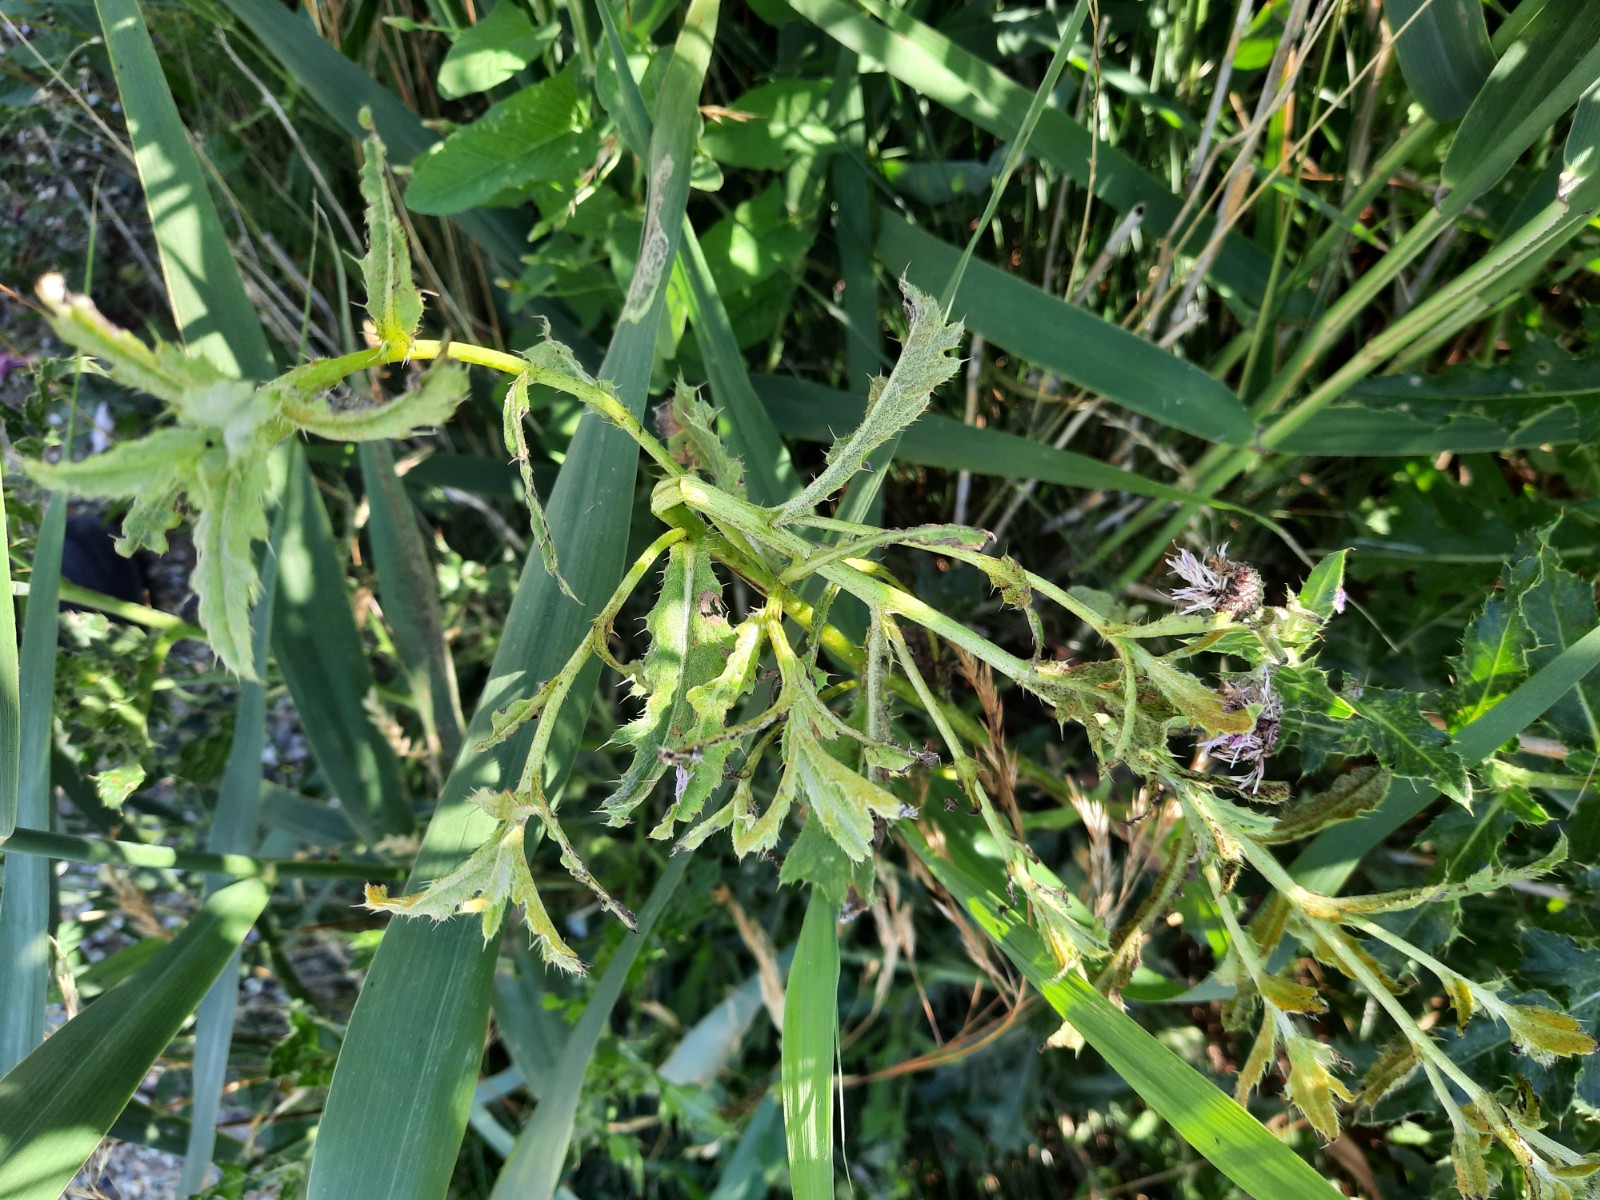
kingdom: Fungi
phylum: Basidiomycota
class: Pucciniomycetes
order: Pucciniales
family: Pucciniaceae
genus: Puccinia
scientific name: Puccinia suaveolens
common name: tidsel-tvecellerust
